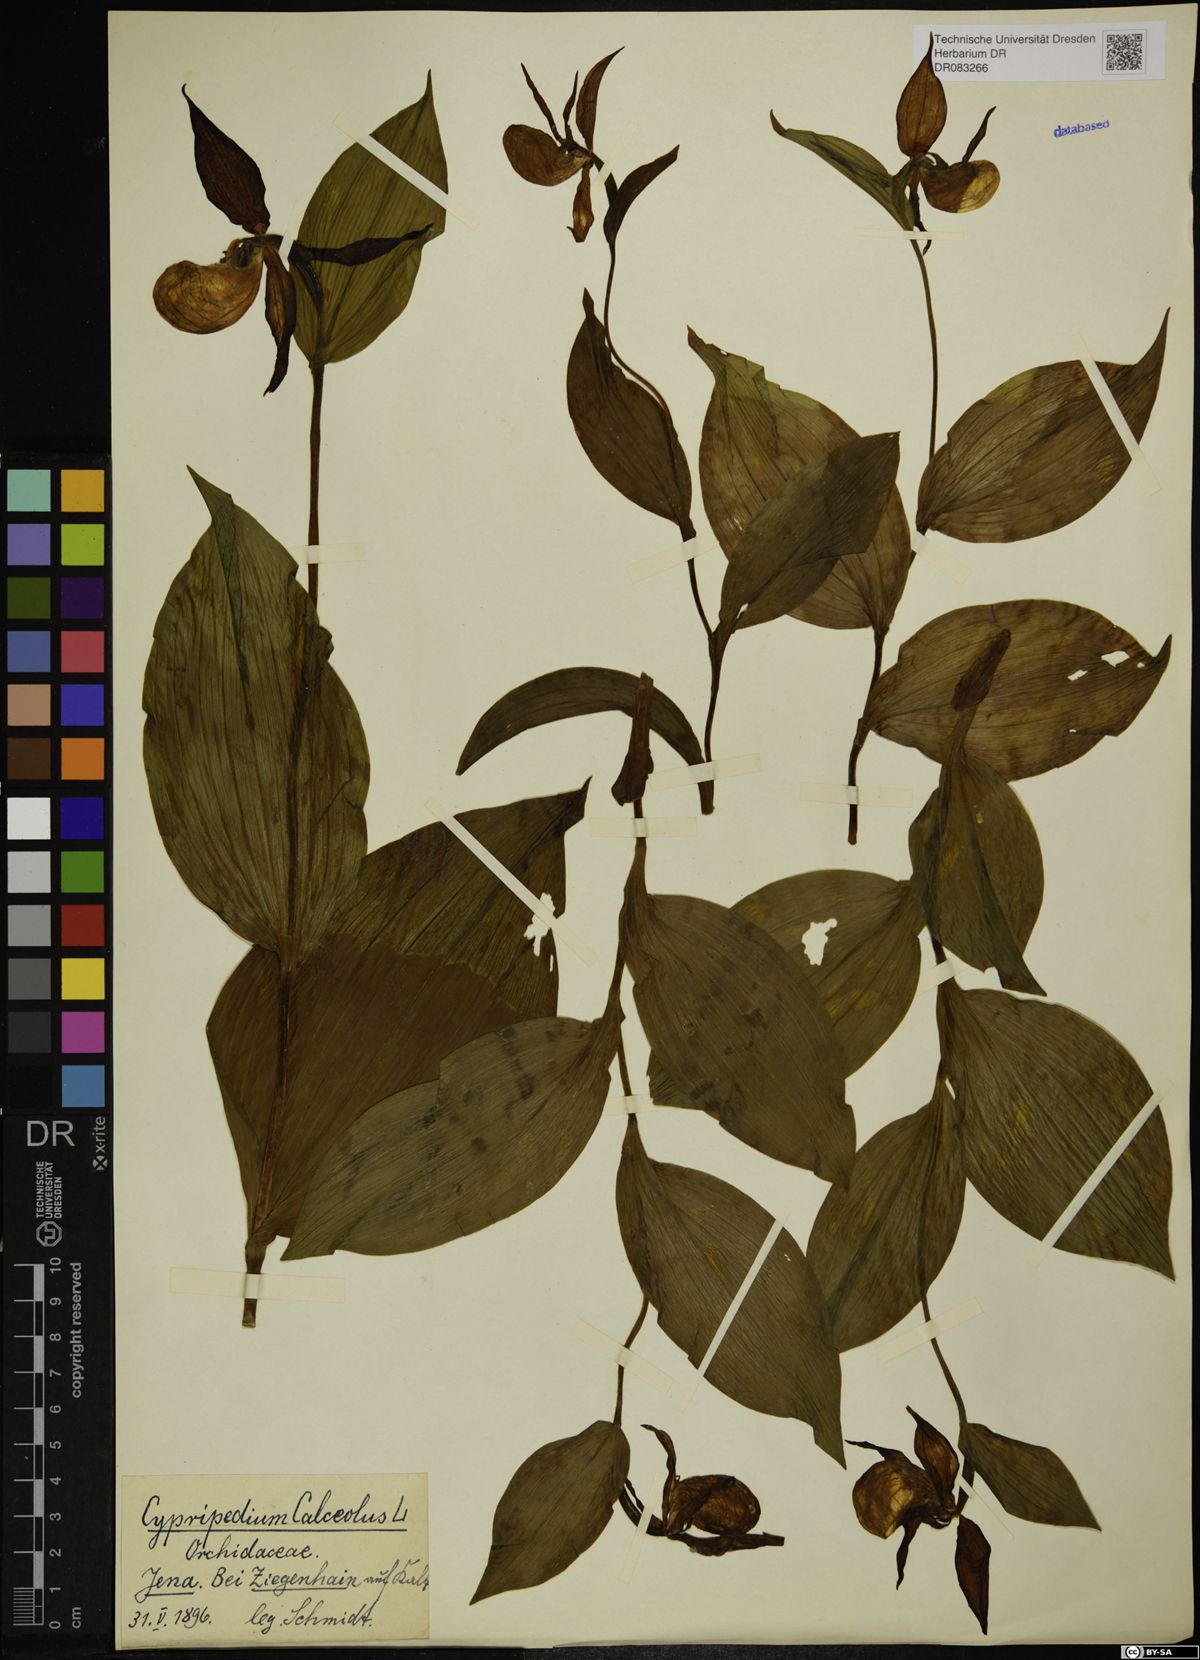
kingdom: Plantae
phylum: Tracheophyta
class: Liliopsida
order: Asparagales
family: Orchidaceae
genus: Cypripedium
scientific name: Cypripedium calceolus
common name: Lady's-slipper
